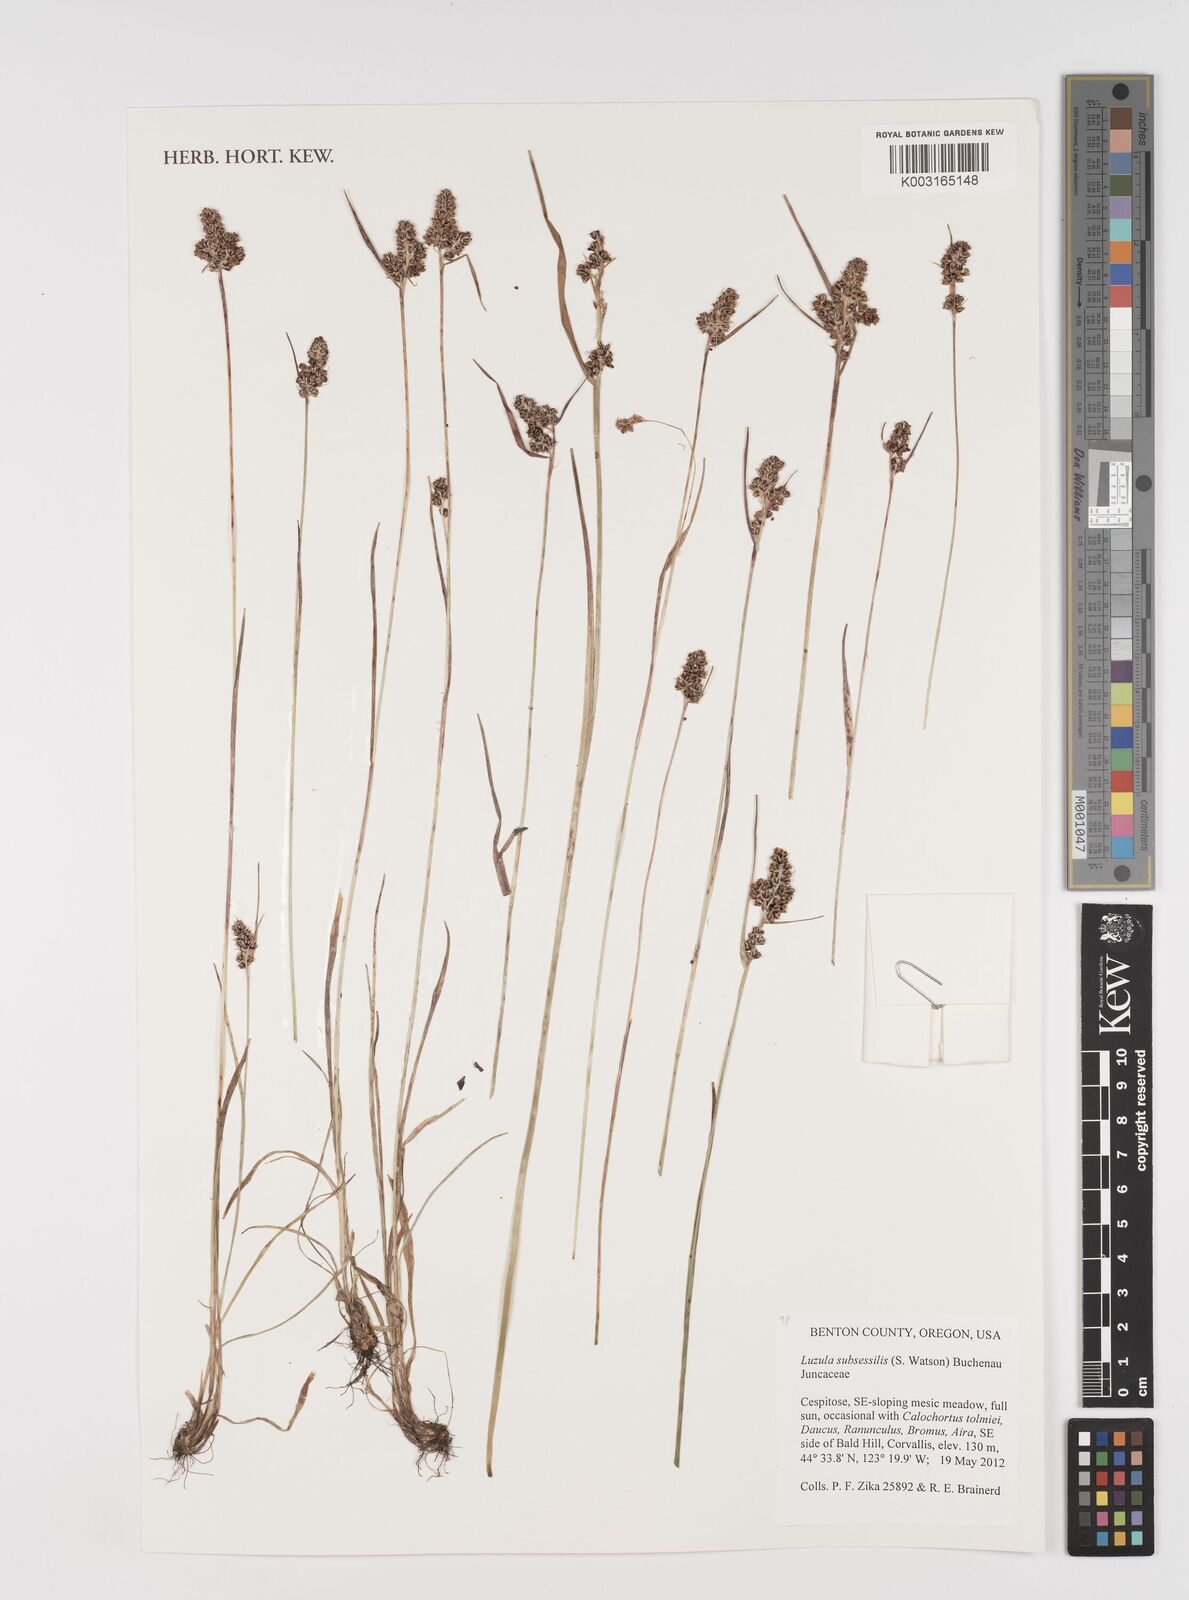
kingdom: Plantae
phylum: Tracheophyta
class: Liliopsida
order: Poales
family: Juncaceae
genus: Luzula
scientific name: Luzula macrantha
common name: Large-anthered woodrush
